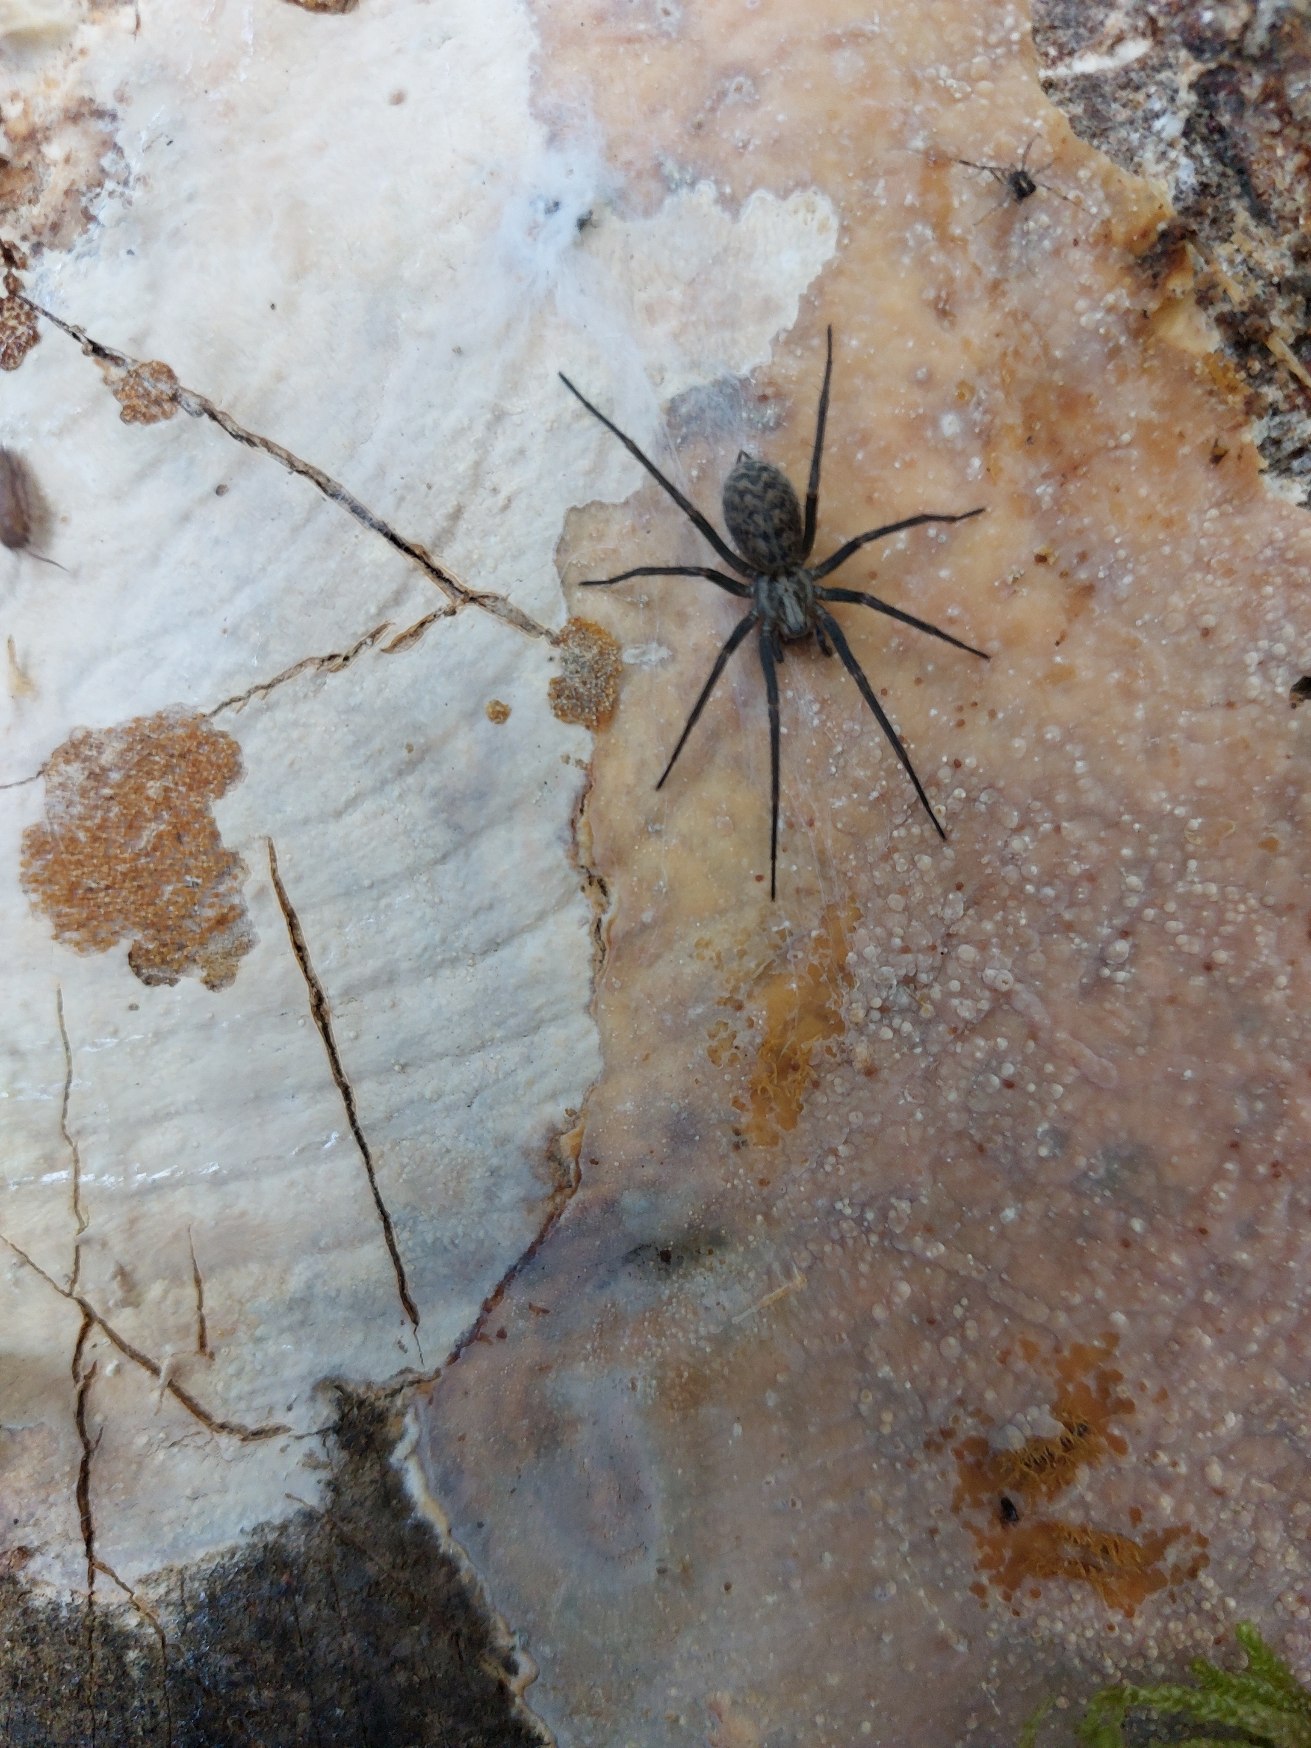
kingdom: Animalia
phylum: Arthropoda
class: Arachnida
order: Araneae
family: Agelenidae
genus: Eratigena
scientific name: Eratigena atrica
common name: Stor husedderkop
